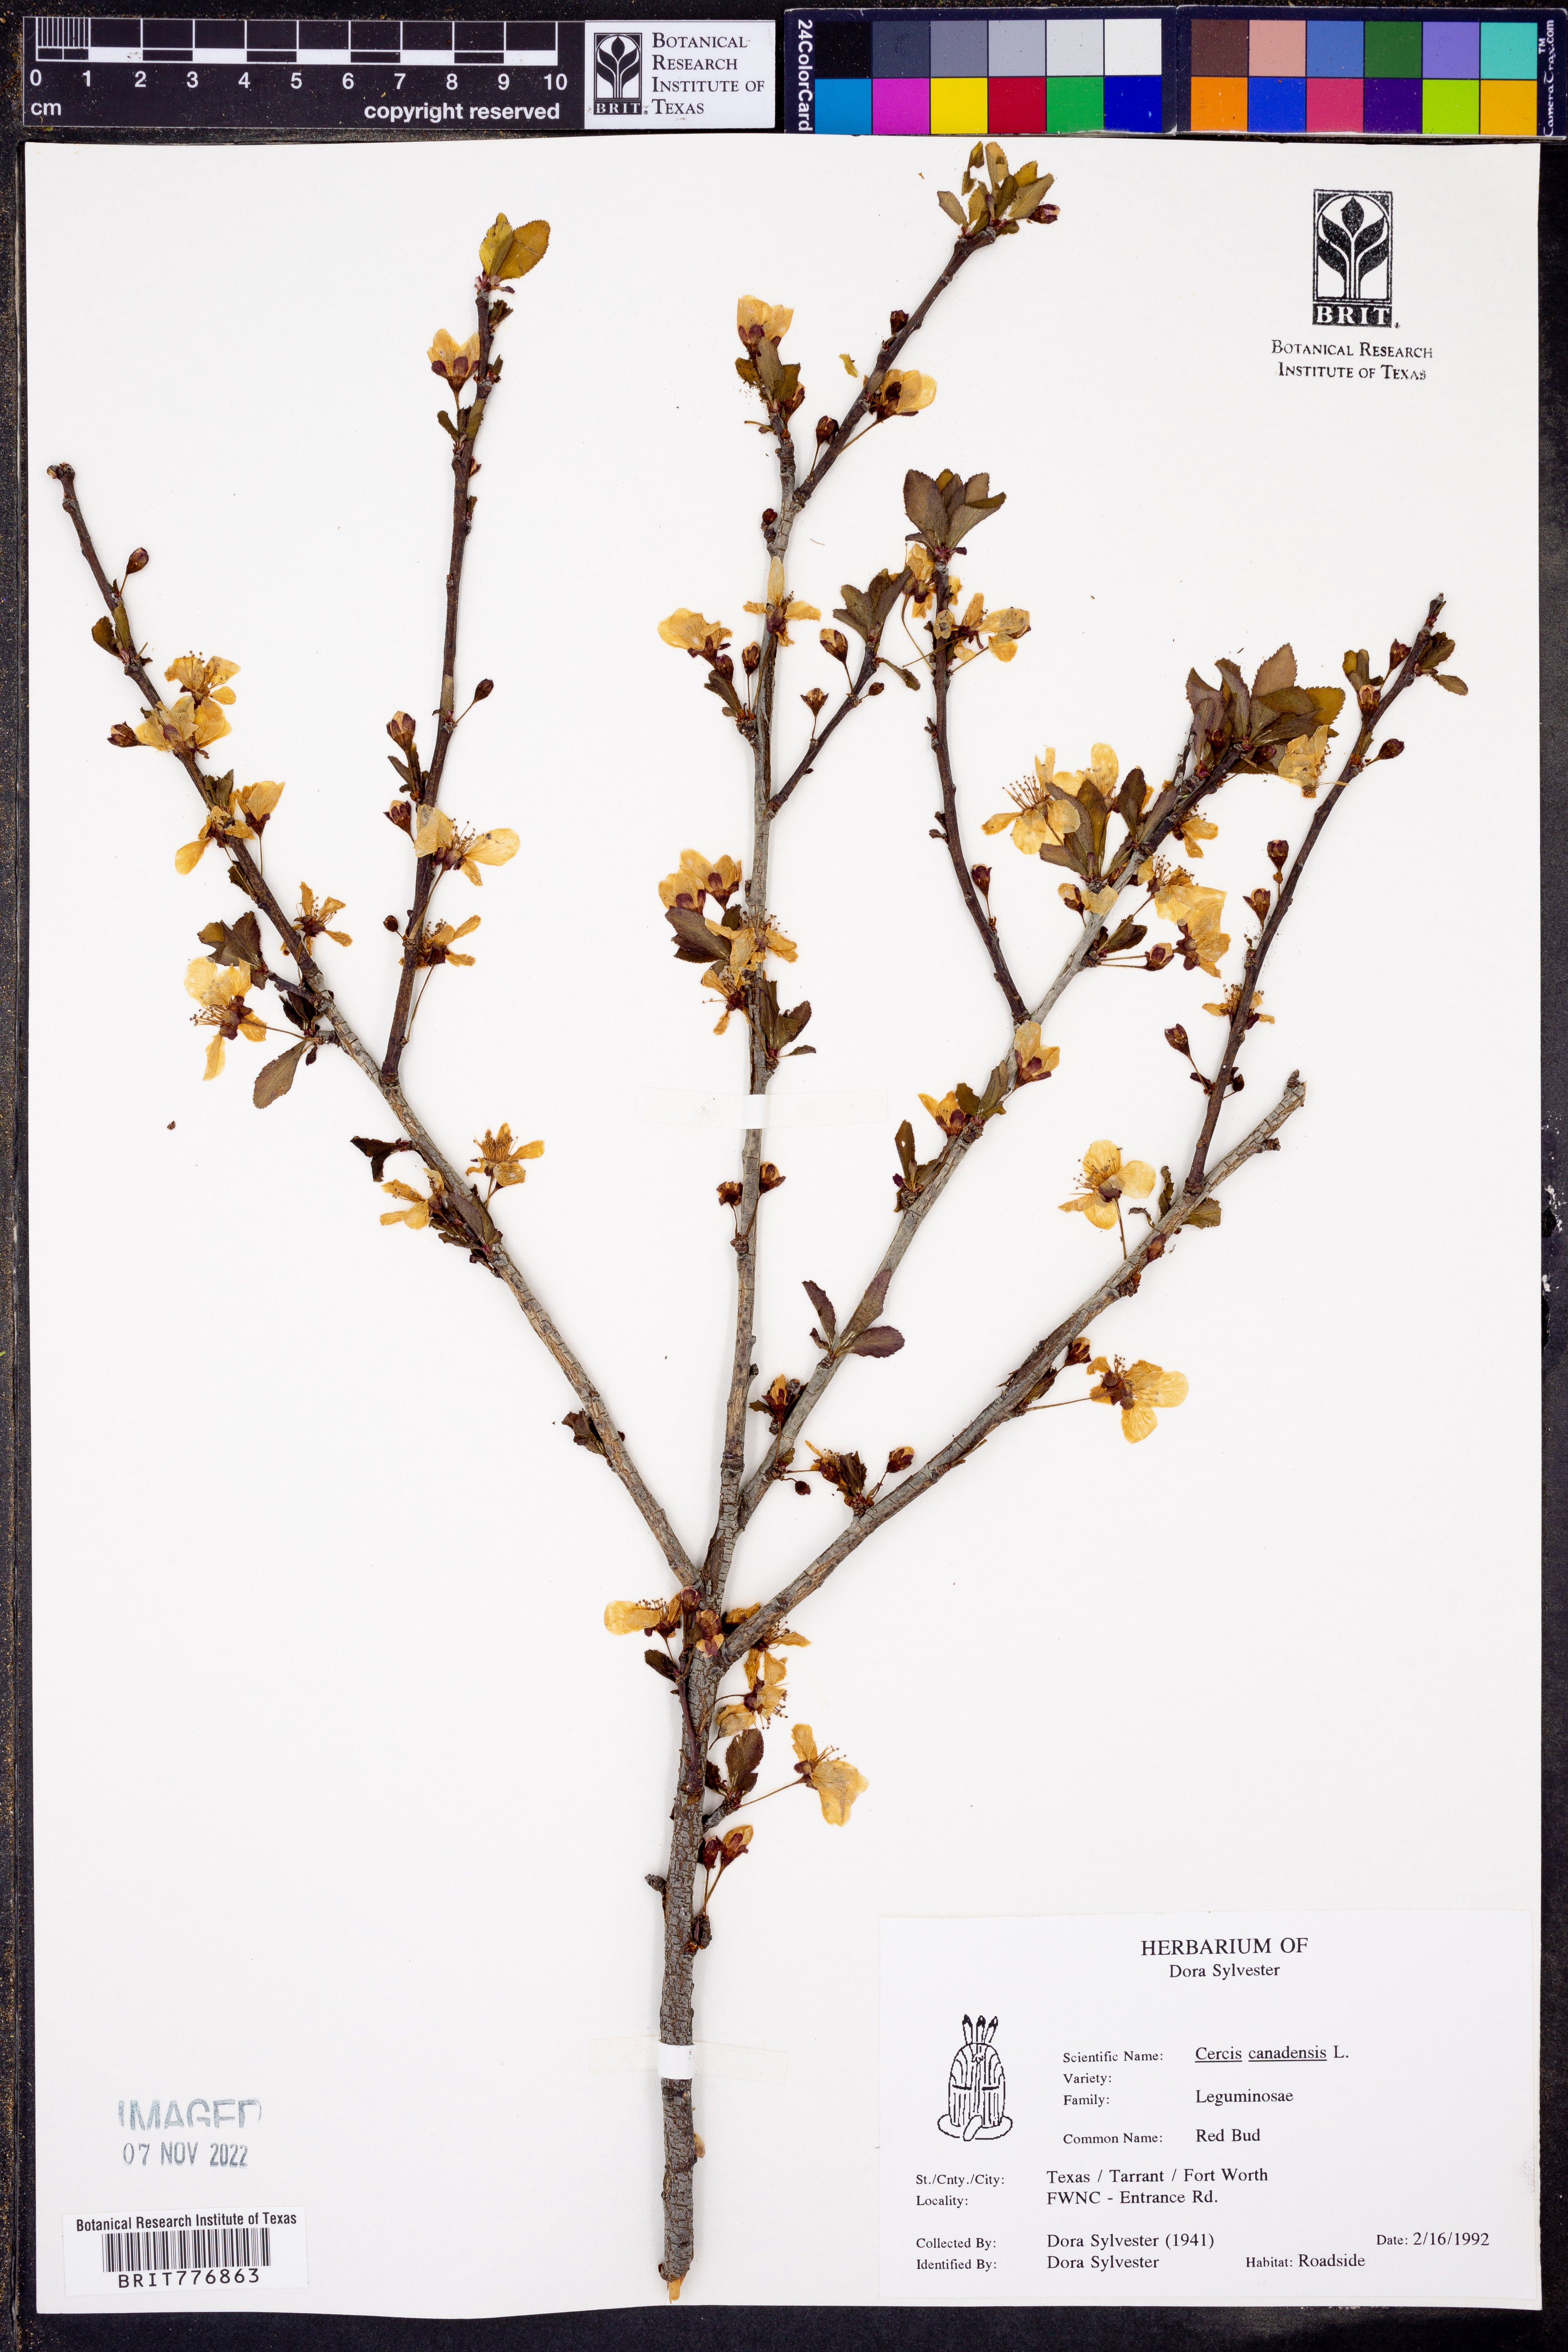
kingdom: Plantae
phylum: Tracheophyta
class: Magnoliopsida
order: Fabales
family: Fabaceae
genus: Cercis
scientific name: Cercis canadensis
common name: Eastern redbud
